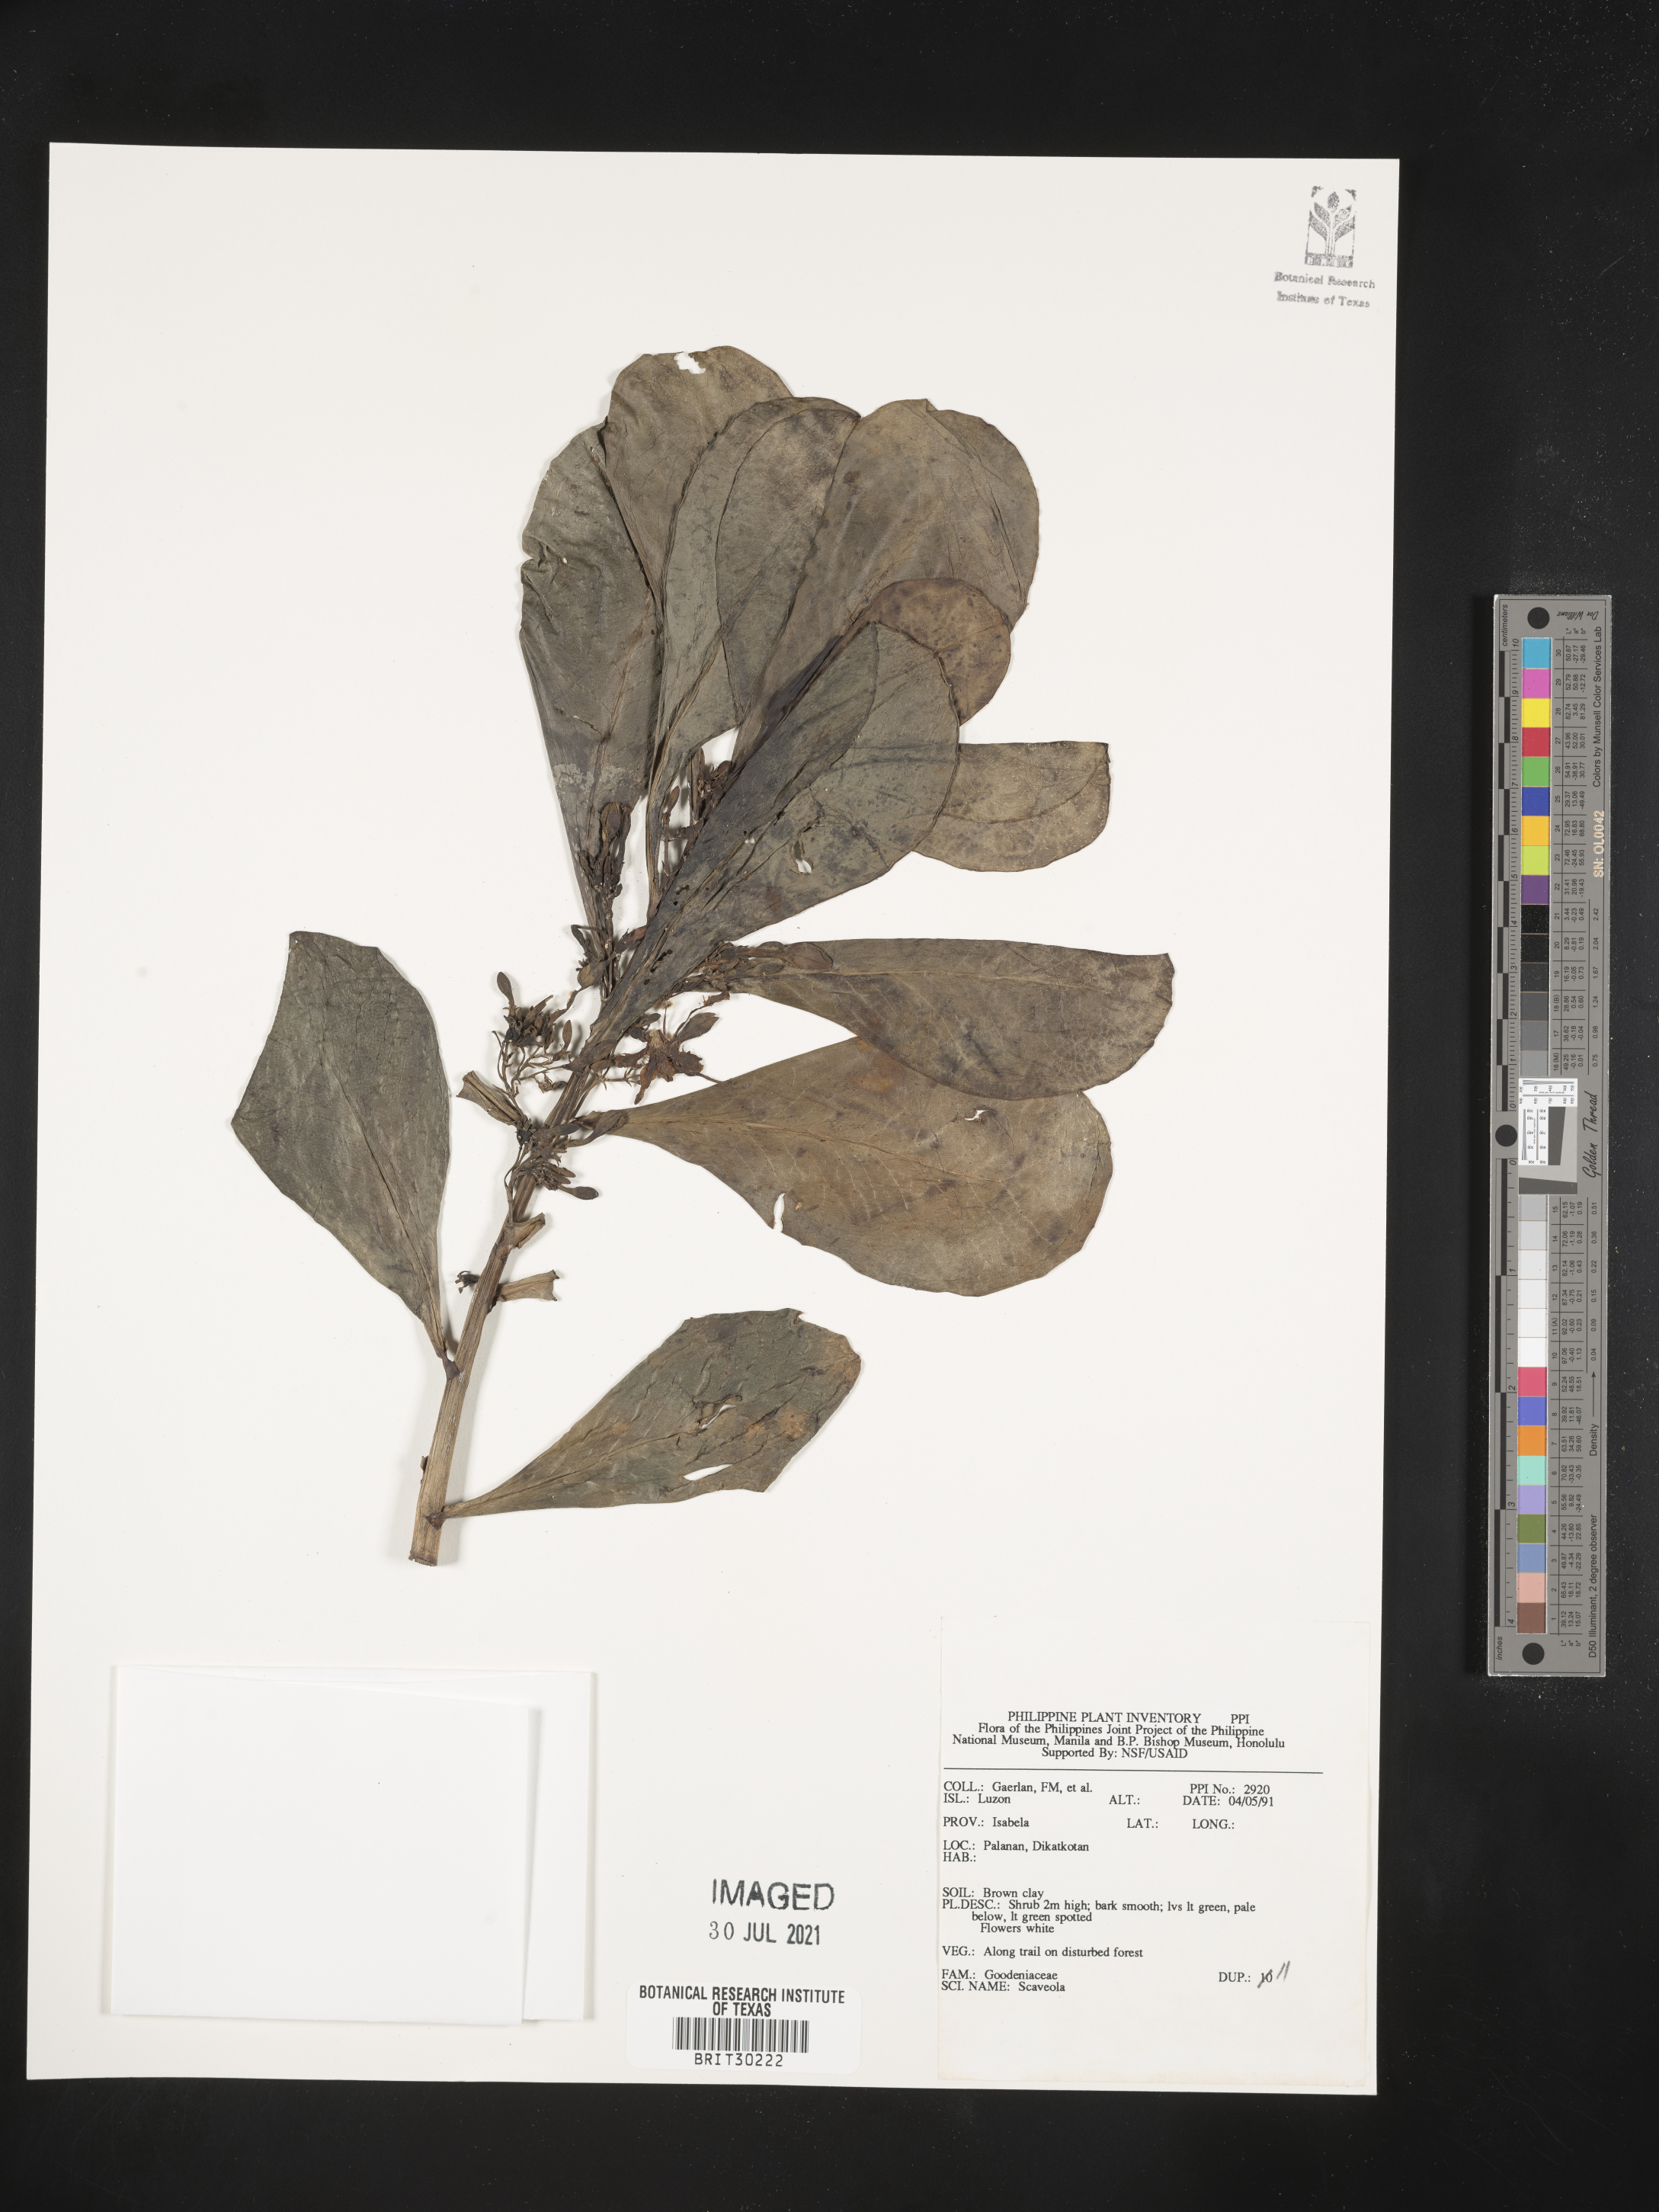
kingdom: Plantae
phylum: Tracheophyta
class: Magnoliopsida
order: Asterales
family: Goodeniaceae
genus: Scaevola
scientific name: Scaevola
